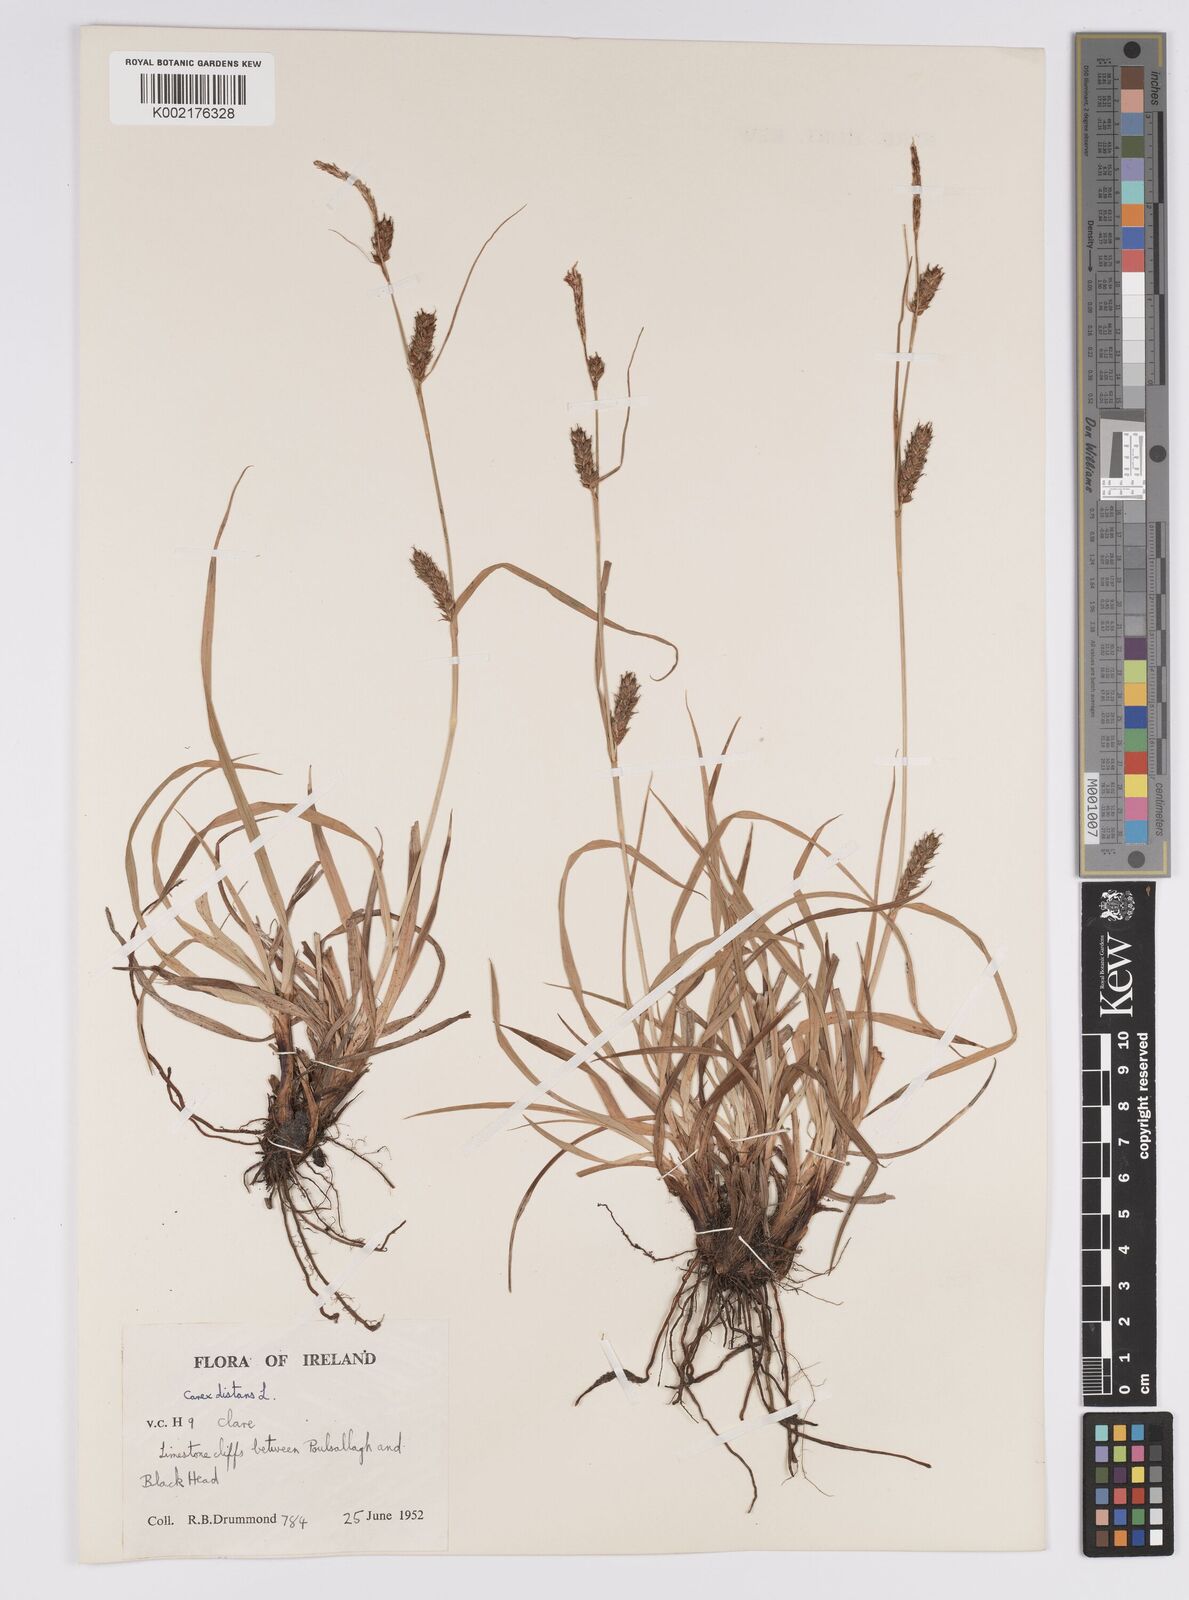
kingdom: Plantae
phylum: Tracheophyta
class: Liliopsida
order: Poales
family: Cyperaceae
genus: Carex
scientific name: Carex distans
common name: Distant sedge
